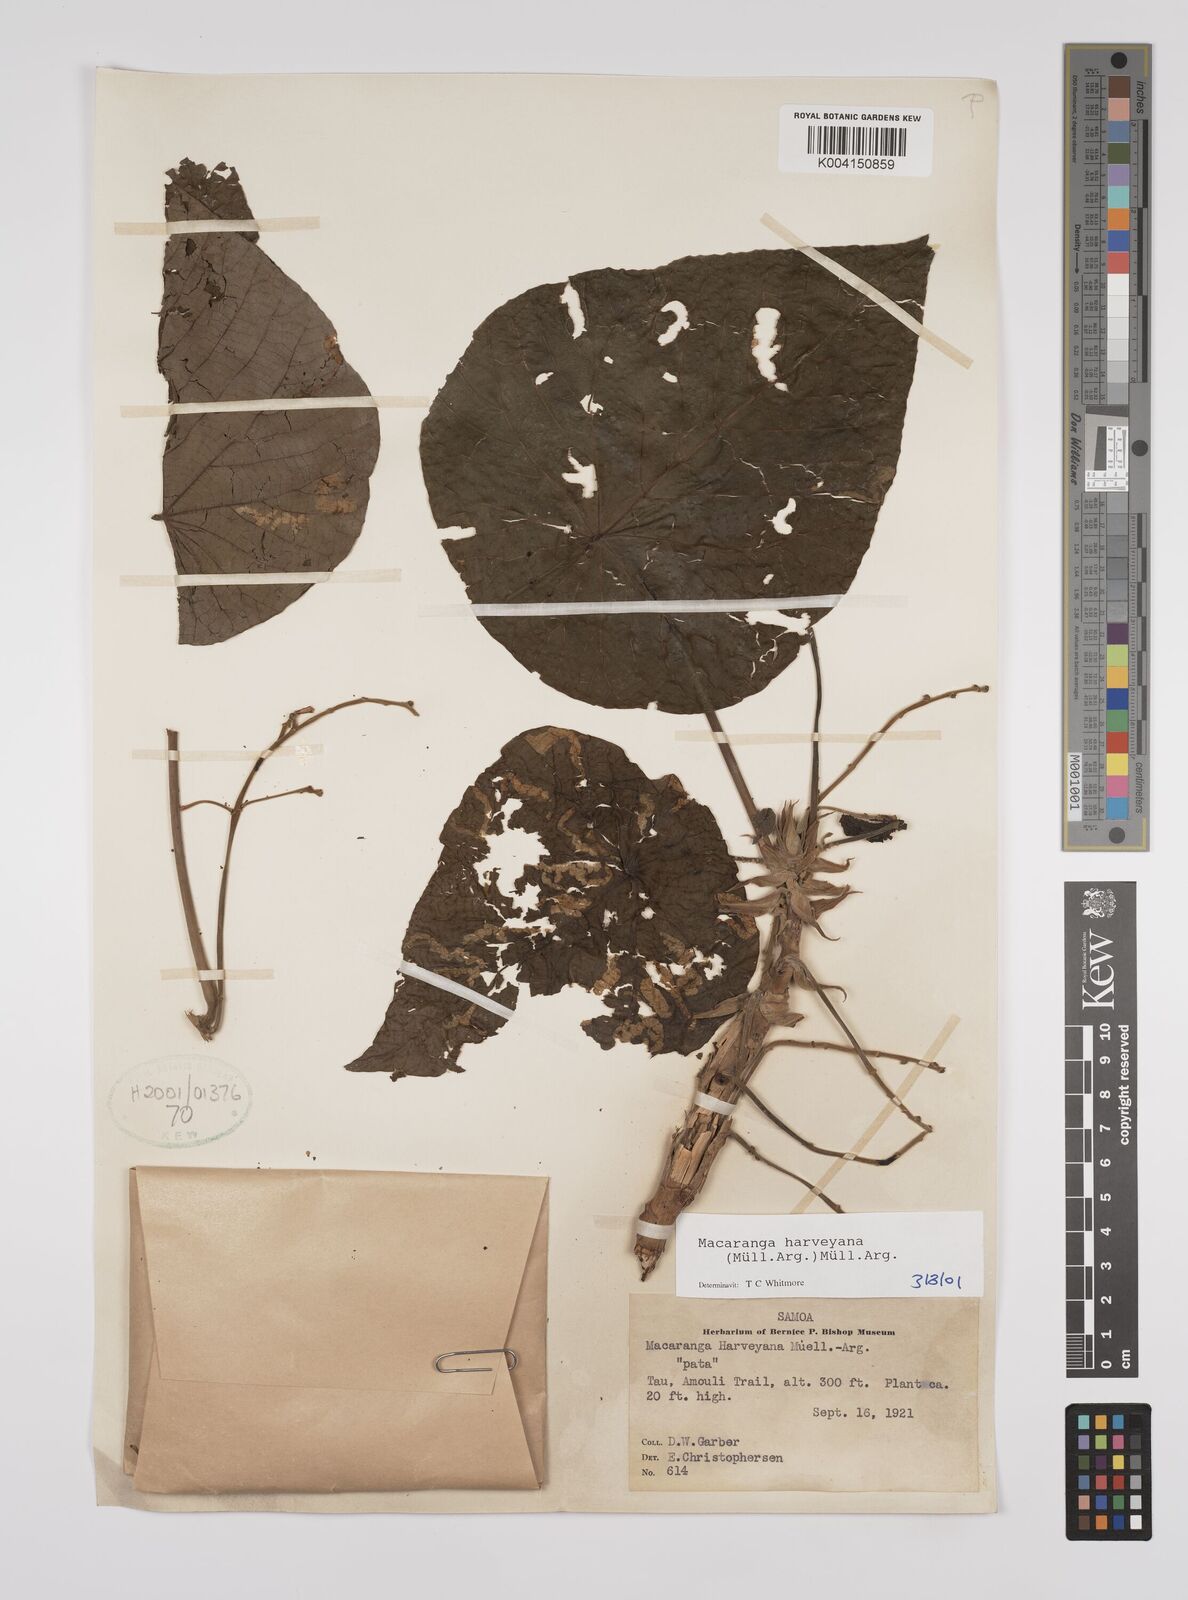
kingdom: Plantae
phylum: Tracheophyta
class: Magnoliopsida
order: Malpighiales
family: Euphorbiaceae
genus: Macaranga
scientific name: Macaranga harveyana
